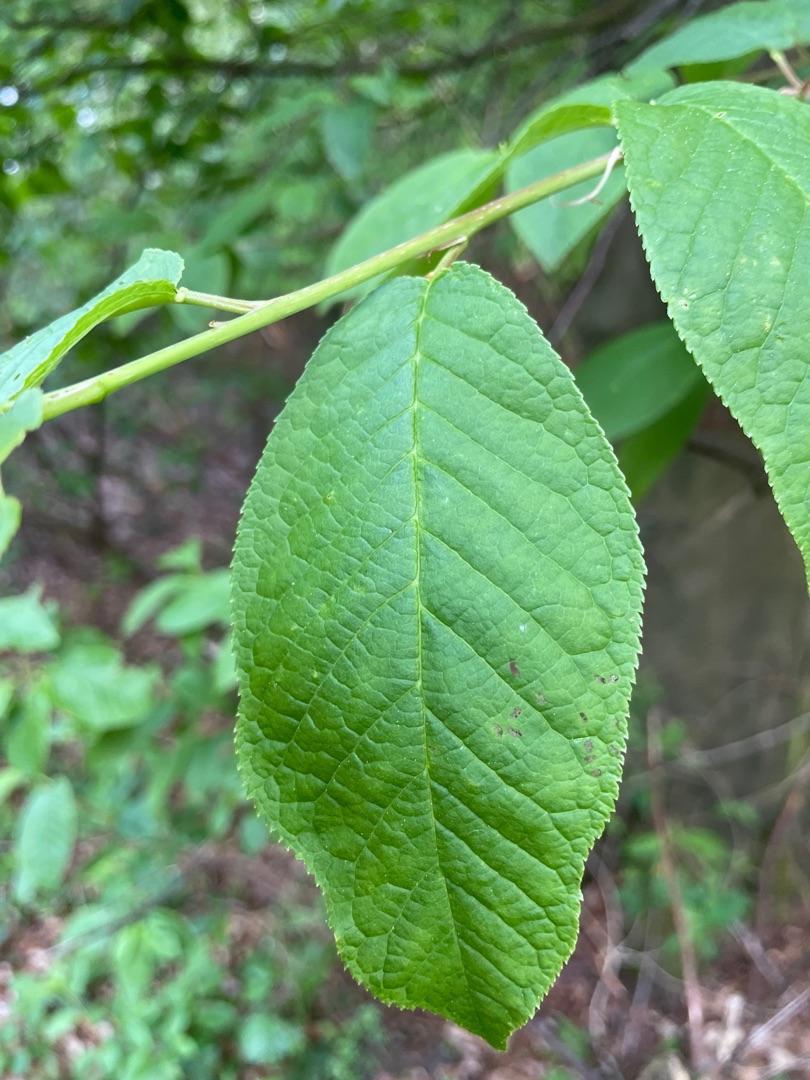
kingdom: Plantae
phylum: Tracheophyta
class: Magnoliopsida
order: Rosales
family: Rosaceae
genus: Prunus
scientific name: Prunus padus
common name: Almindelig hæg
